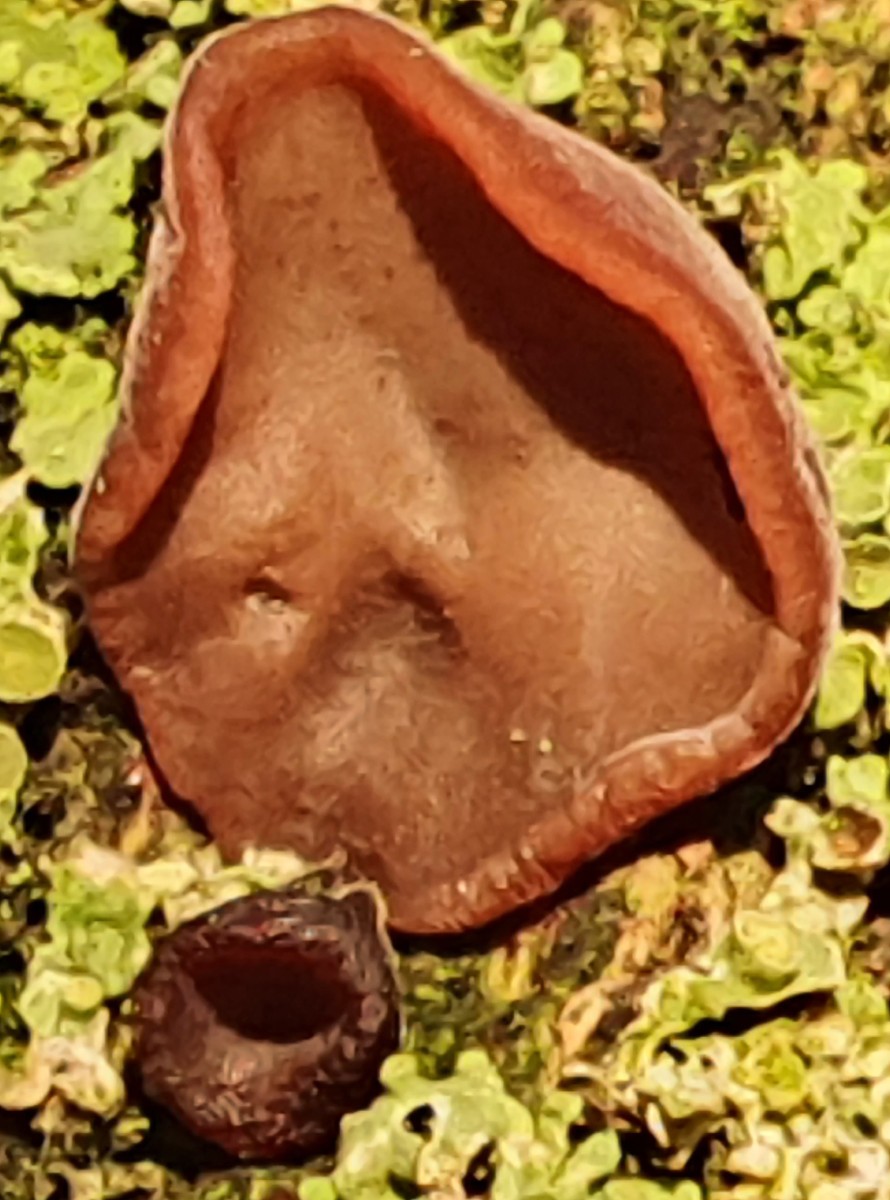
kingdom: Fungi
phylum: Basidiomycota
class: Agaricomycetes
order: Auriculariales
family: Auriculariaceae
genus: Auricularia
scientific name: Auricularia auricula-judae
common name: almindelig judasøre
